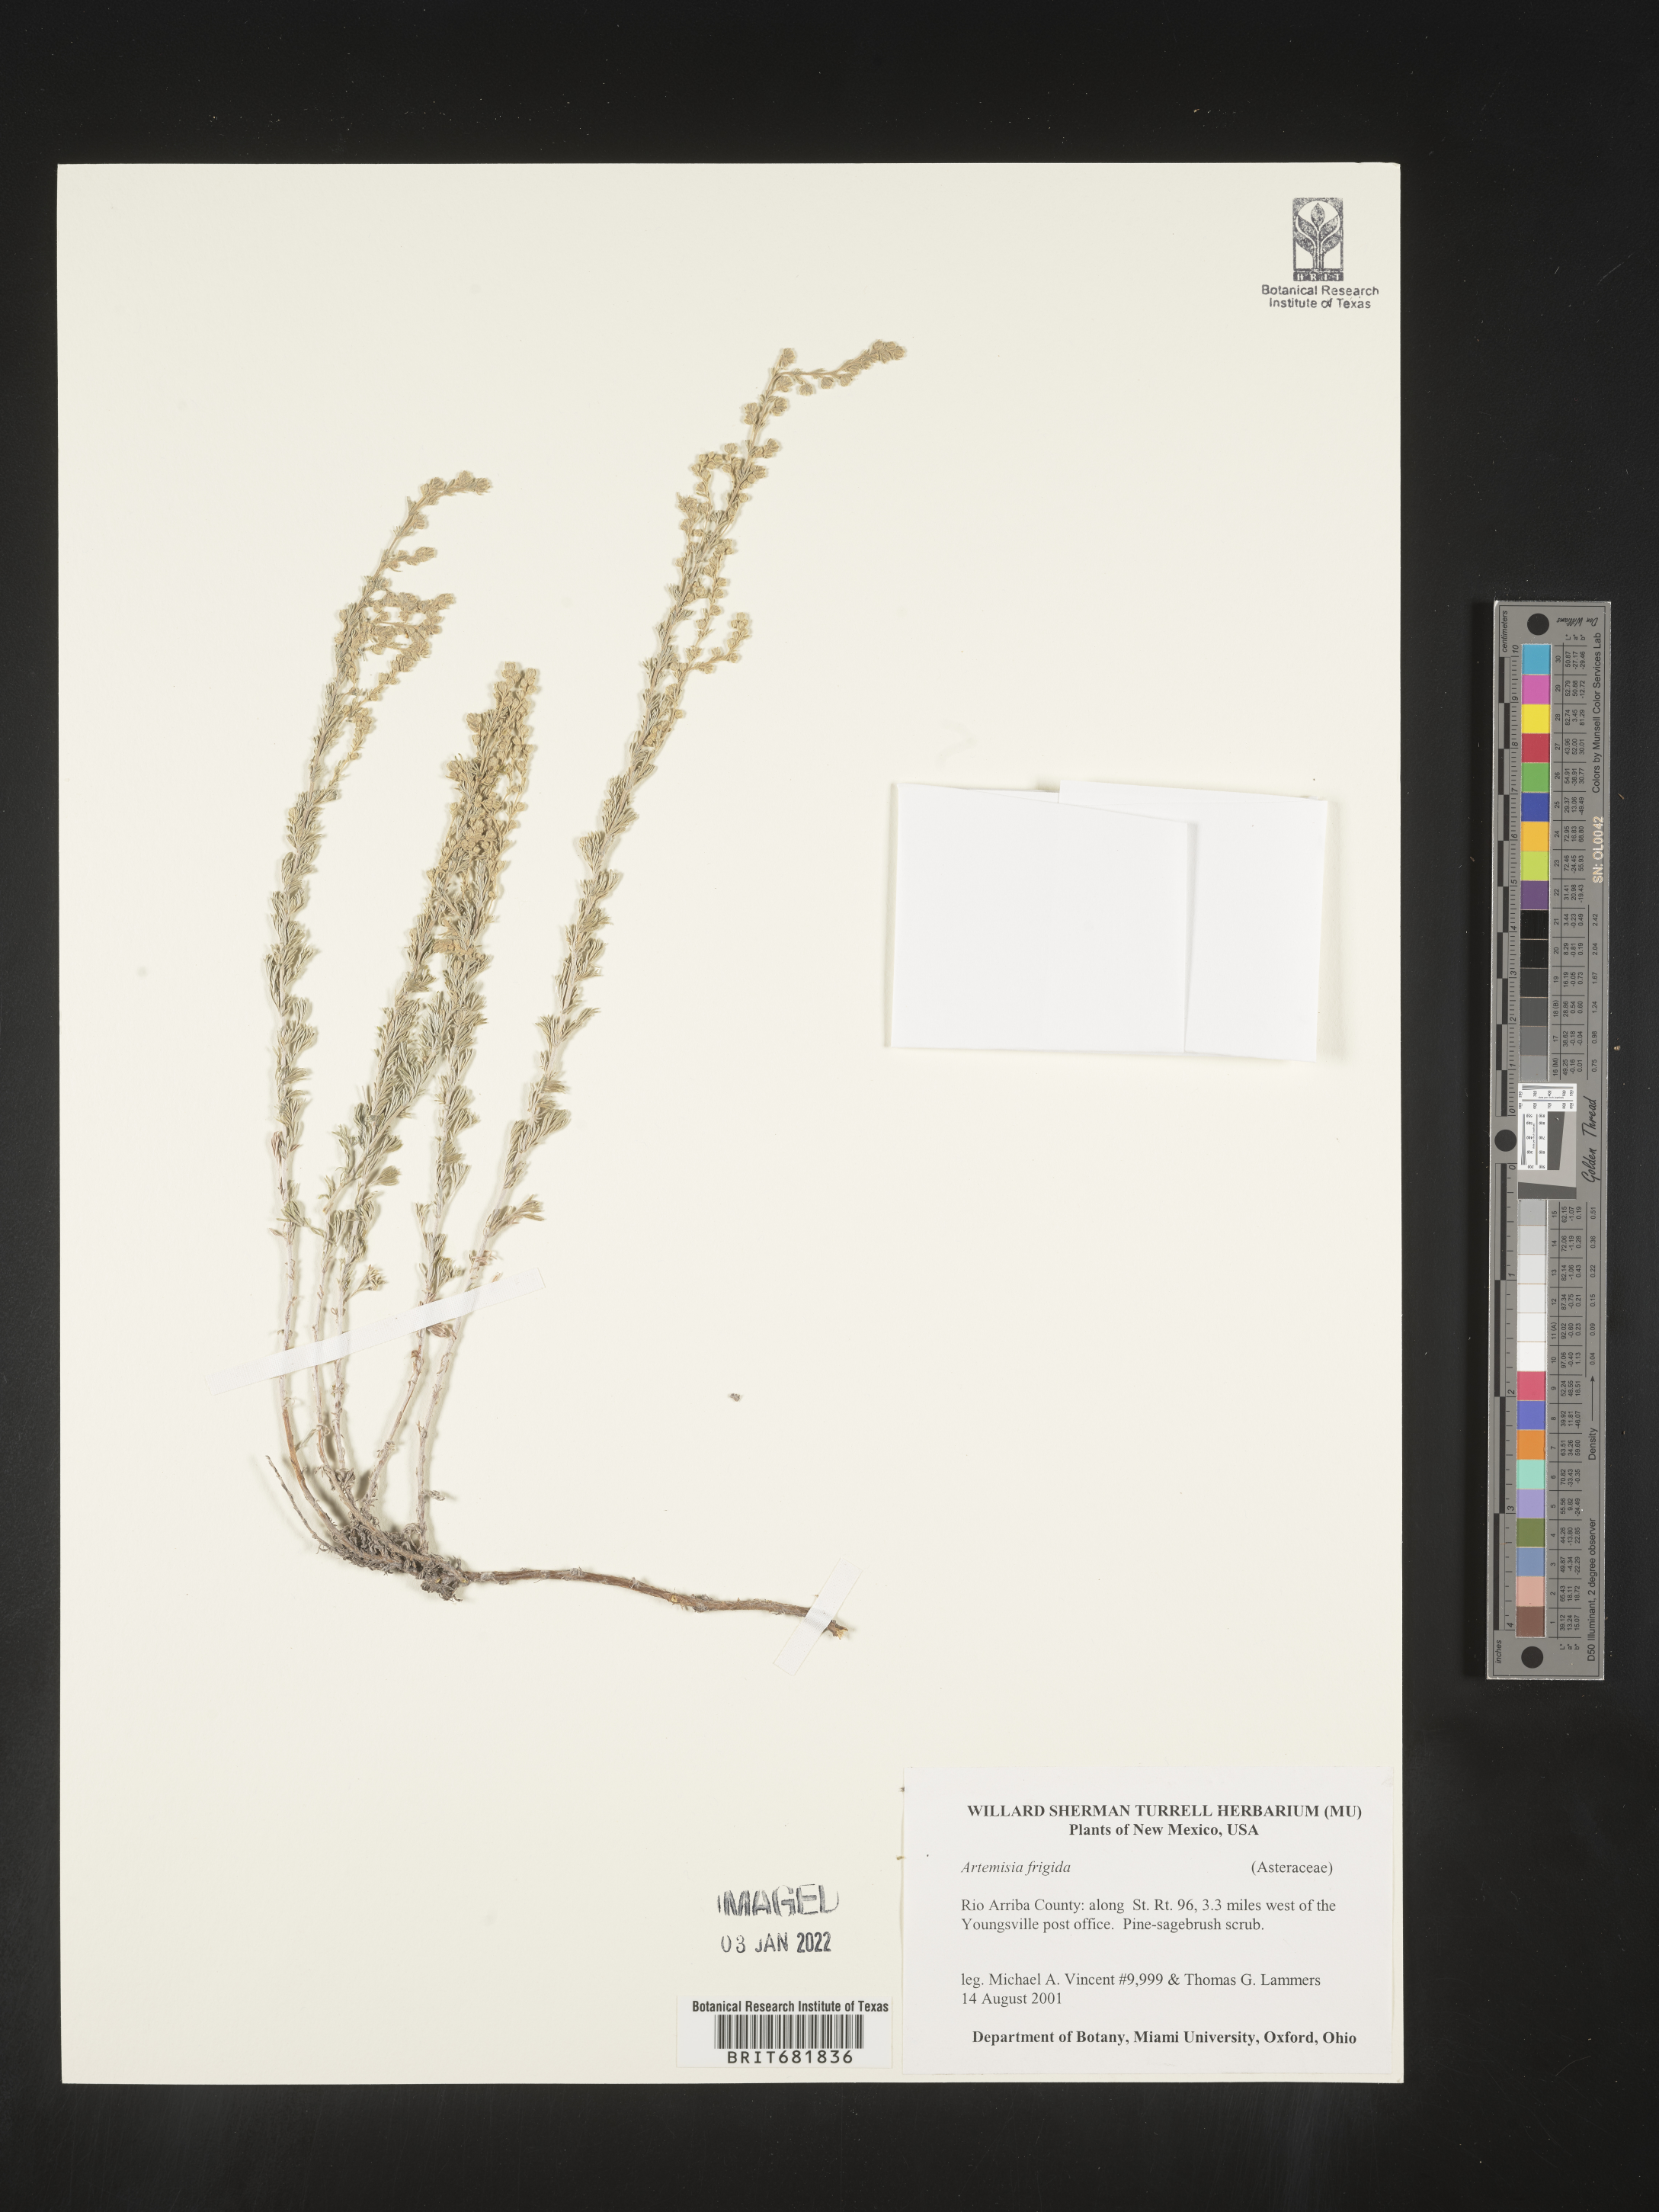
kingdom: Plantae
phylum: Tracheophyta
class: Magnoliopsida
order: Asterales
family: Asteraceae
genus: Artemisia
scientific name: Artemisia frigida
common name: Prairie sagewort
